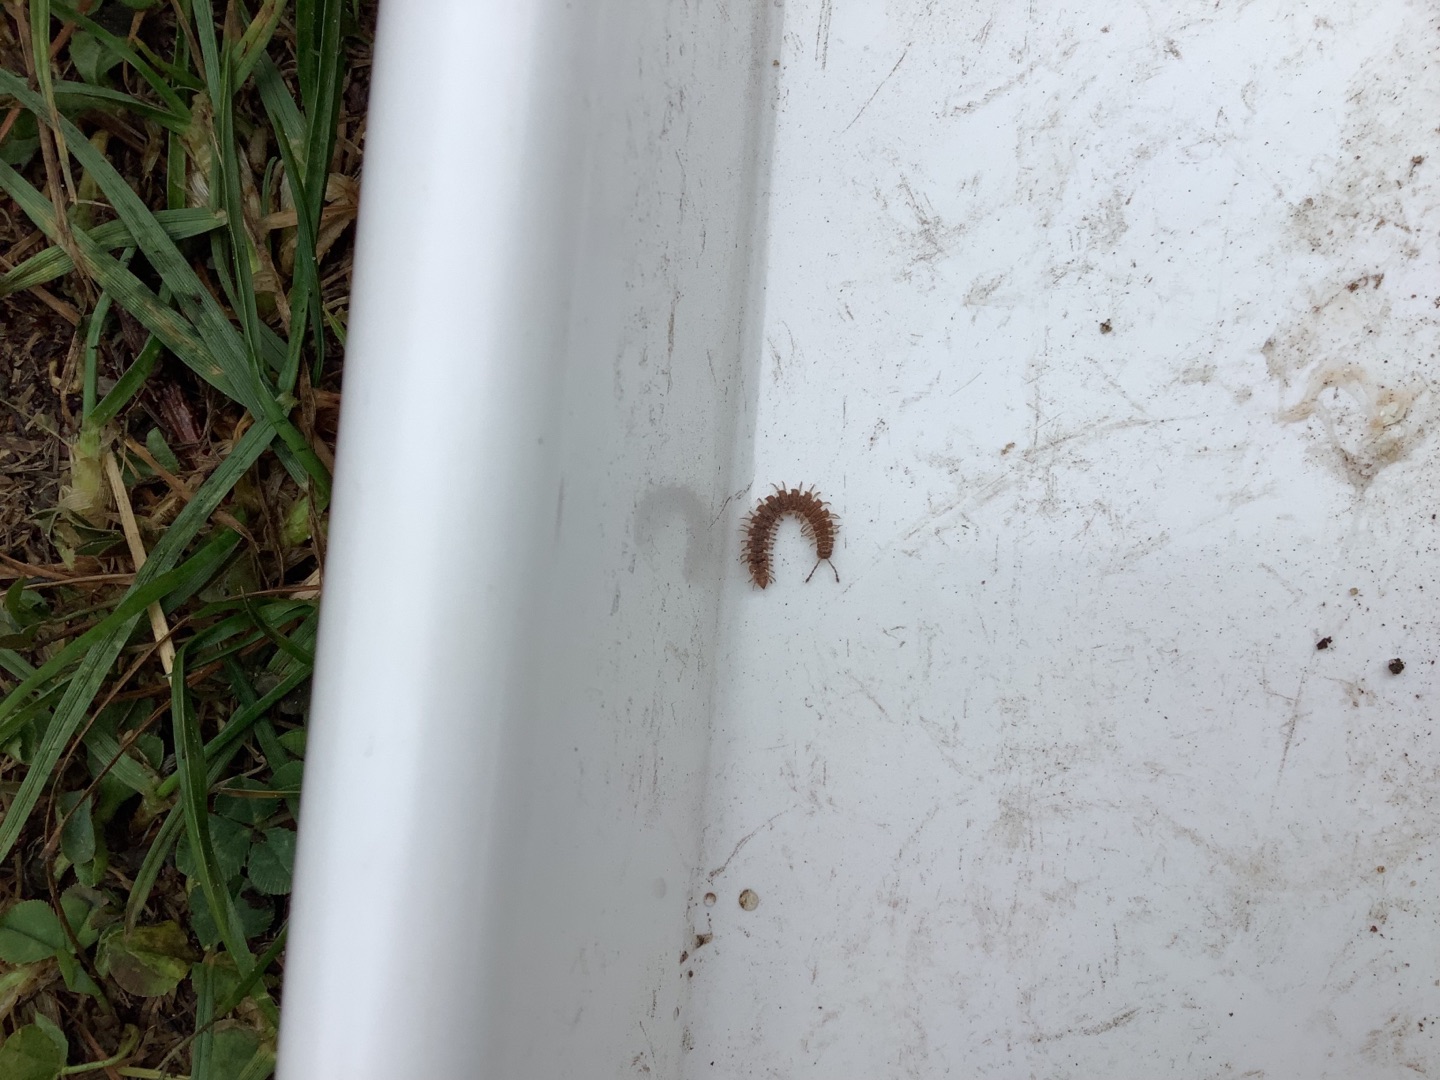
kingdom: Animalia
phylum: Arthropoda
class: Diplopoda
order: Polydesmida
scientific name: Polydesmida
